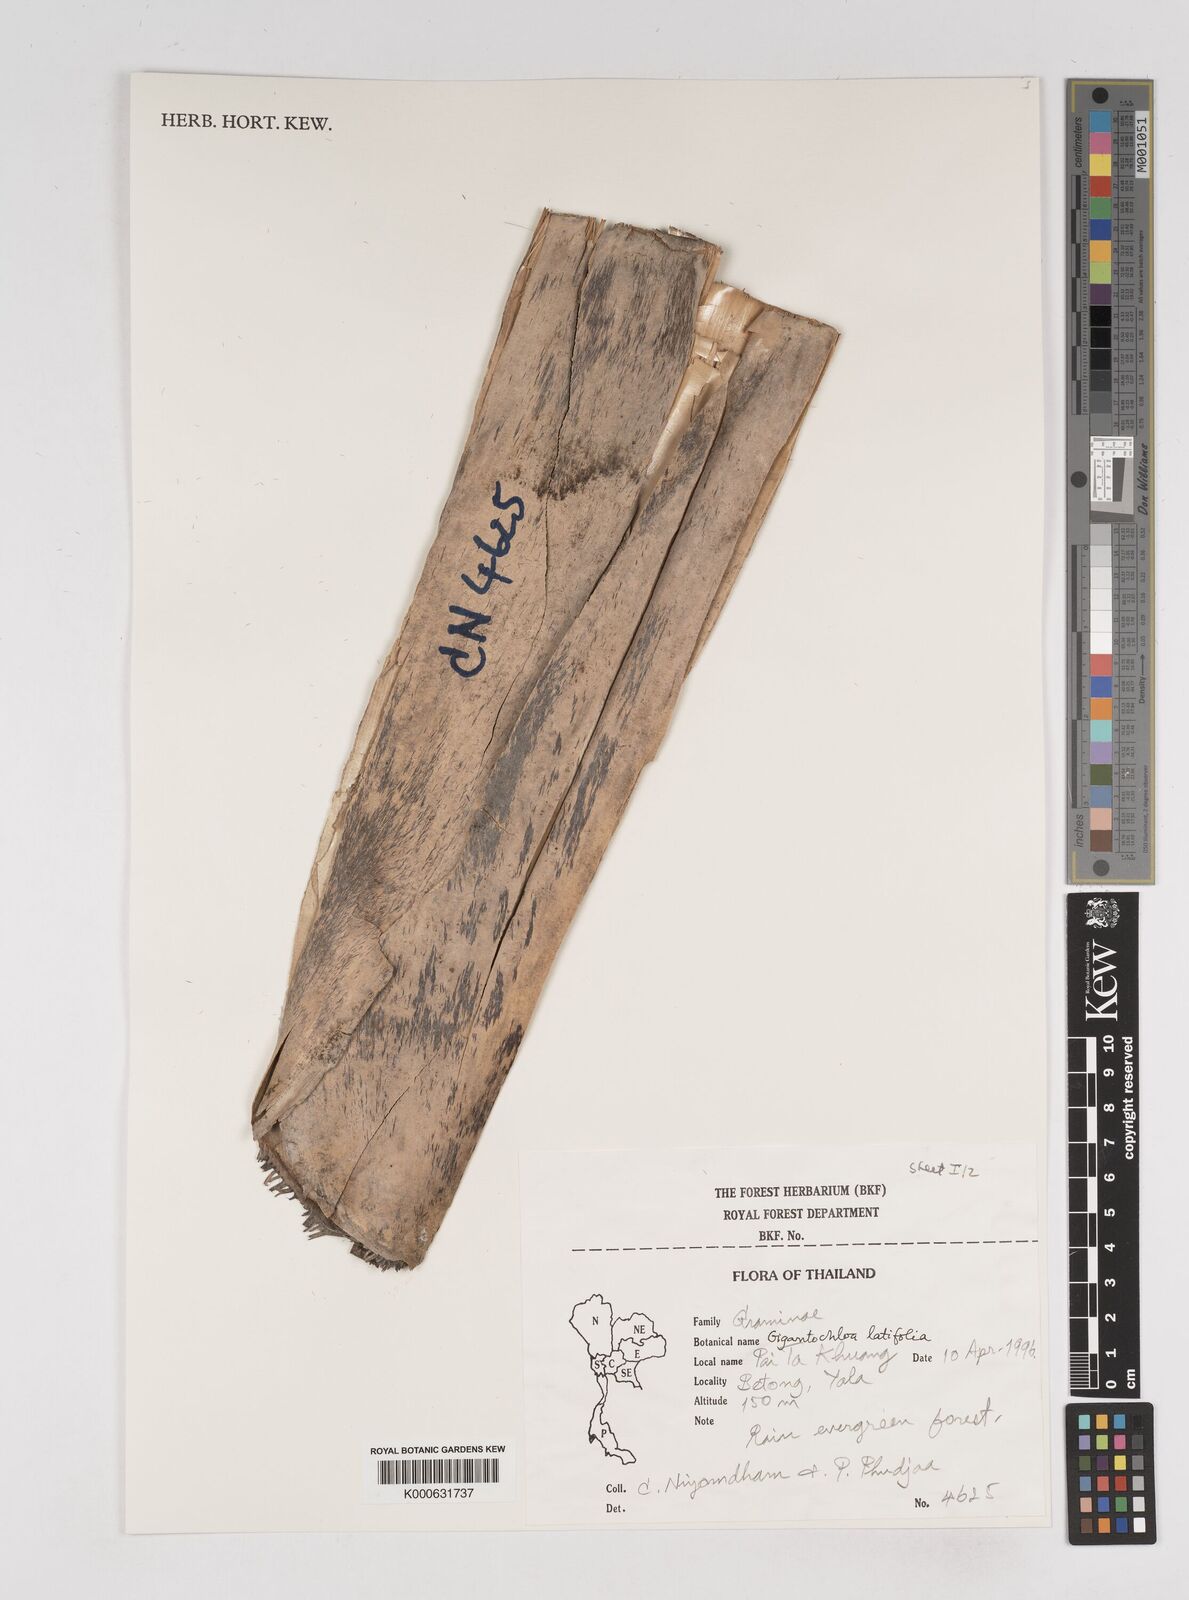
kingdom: Plantae
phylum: Tracheophyta
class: Liliopsida
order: Poales
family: Poaceae
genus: Gigantochloa
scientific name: Gigantochloa latifolia
